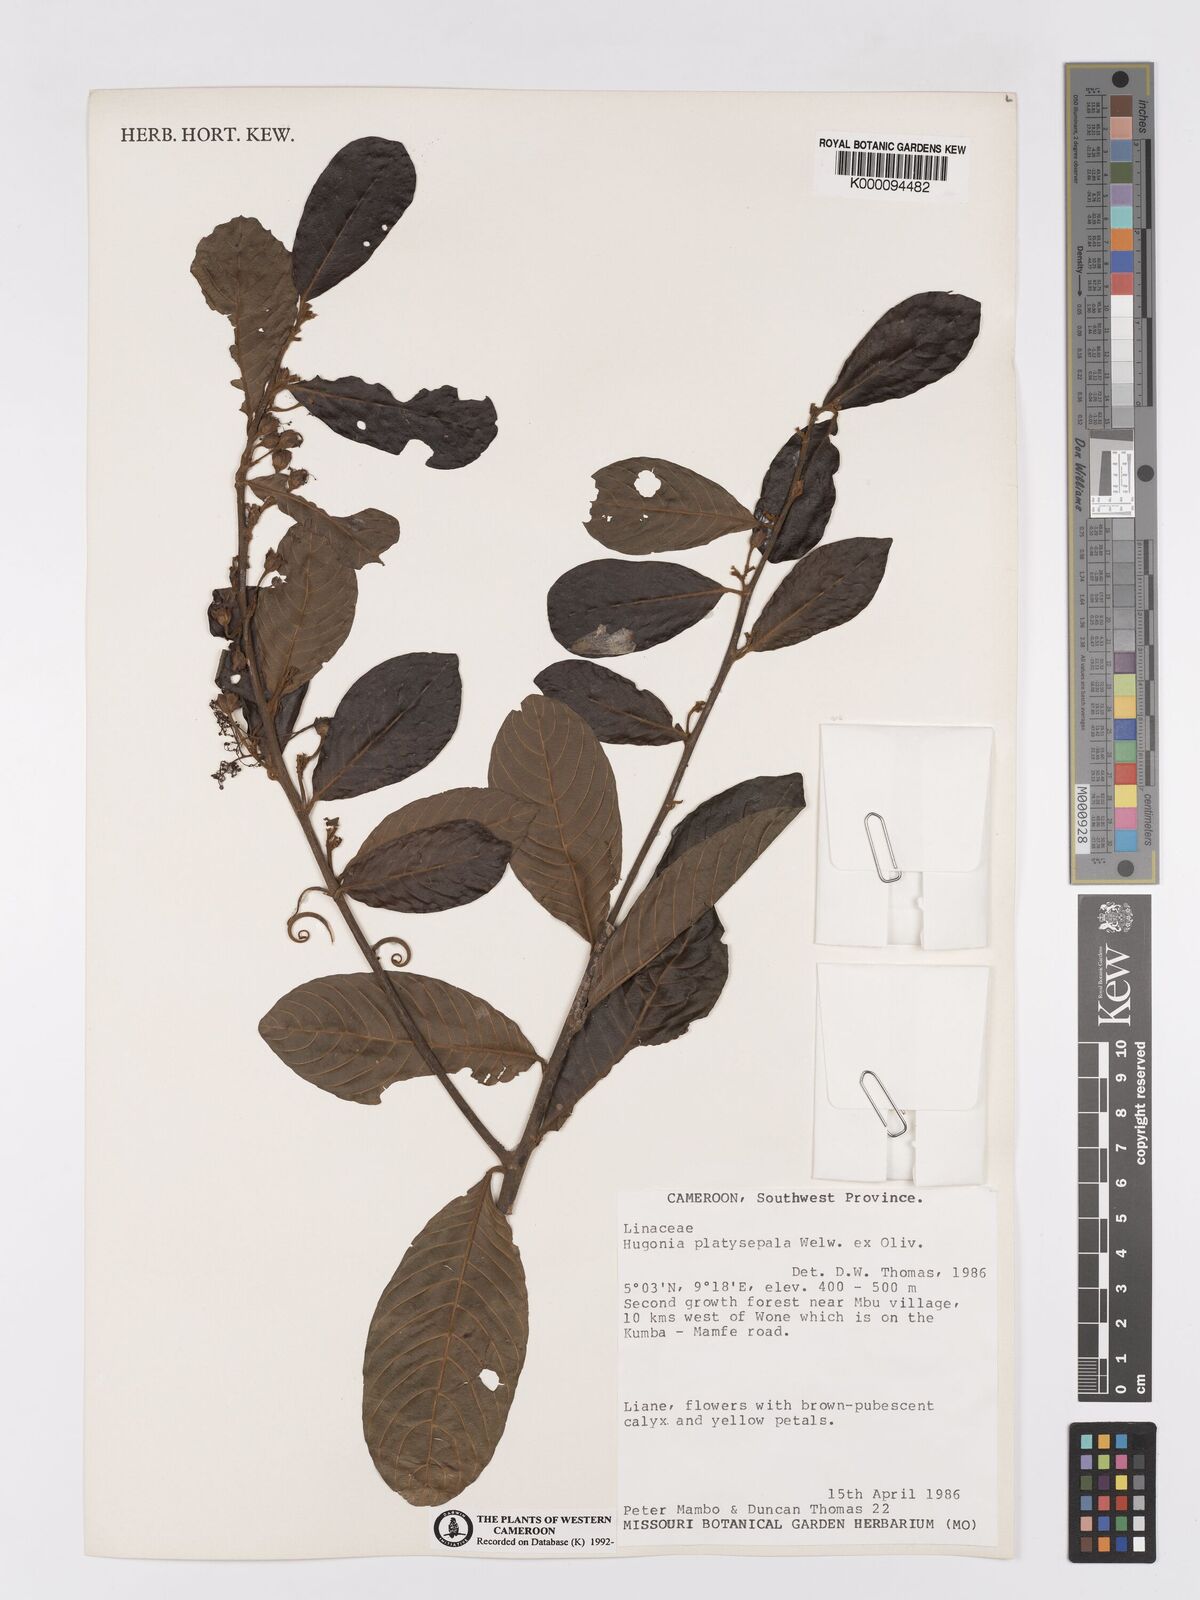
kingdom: Plantae
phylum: Tracheophyta
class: Magnoliopsida
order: Malpighiales
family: Linaceae
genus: Hugonia
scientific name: Hugonia platysepala
